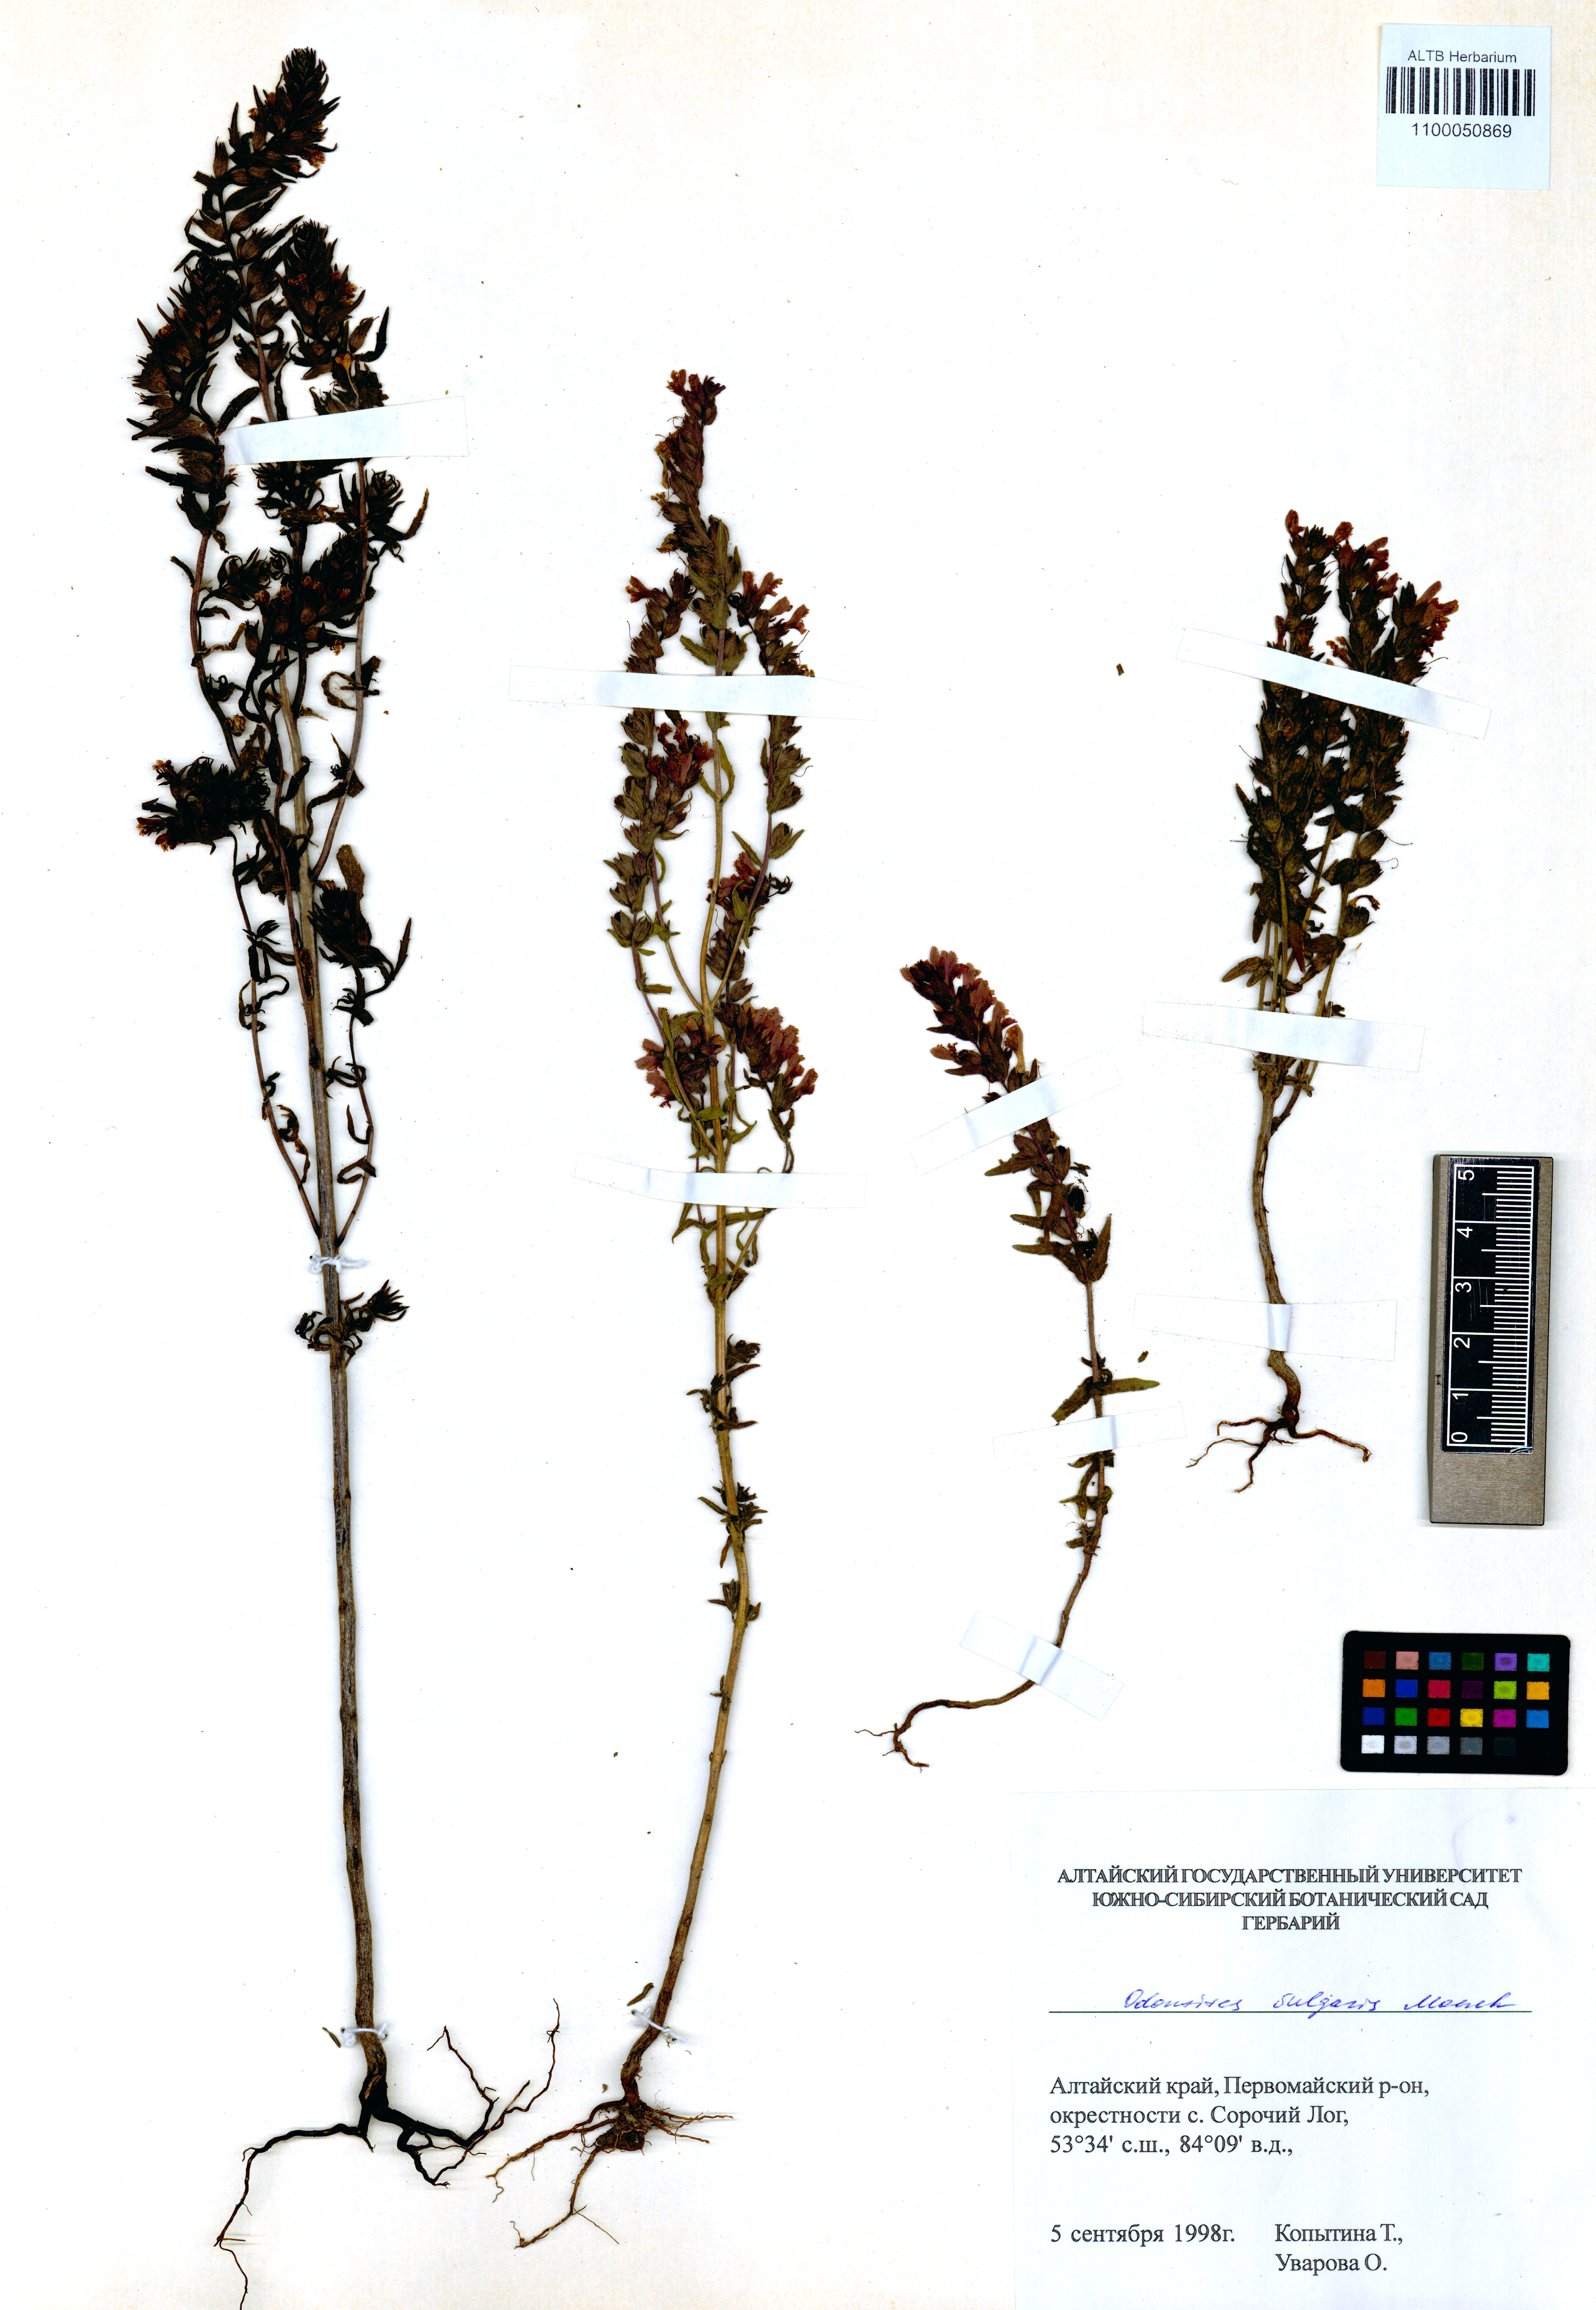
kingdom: Plantae
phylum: Tracheophyta
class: Magnoliopsida
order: Lamiales
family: Orobanchaceae
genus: Odontites
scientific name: Odontites vulgaris
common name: Broomrape
